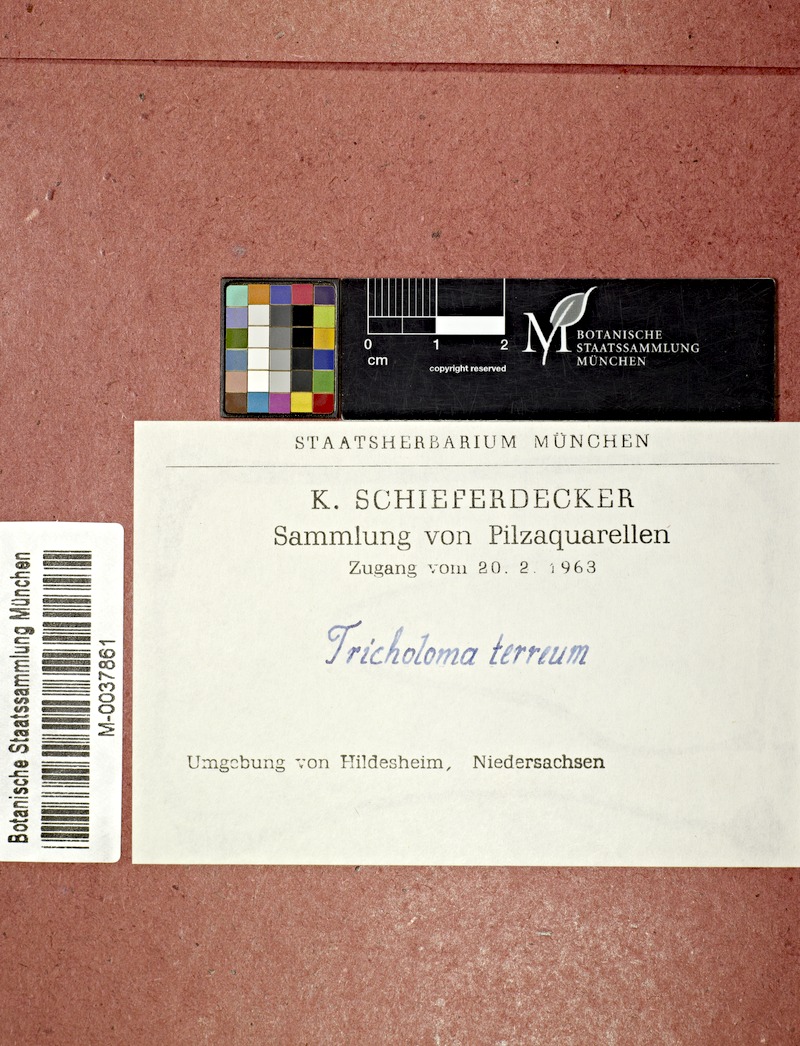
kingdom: Fungi
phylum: Basidiomycota
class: Agaricomycetes
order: Agaricales
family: Tricholomataceae
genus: Tricholoma
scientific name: Tricholoma terreum
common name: Grey knight
